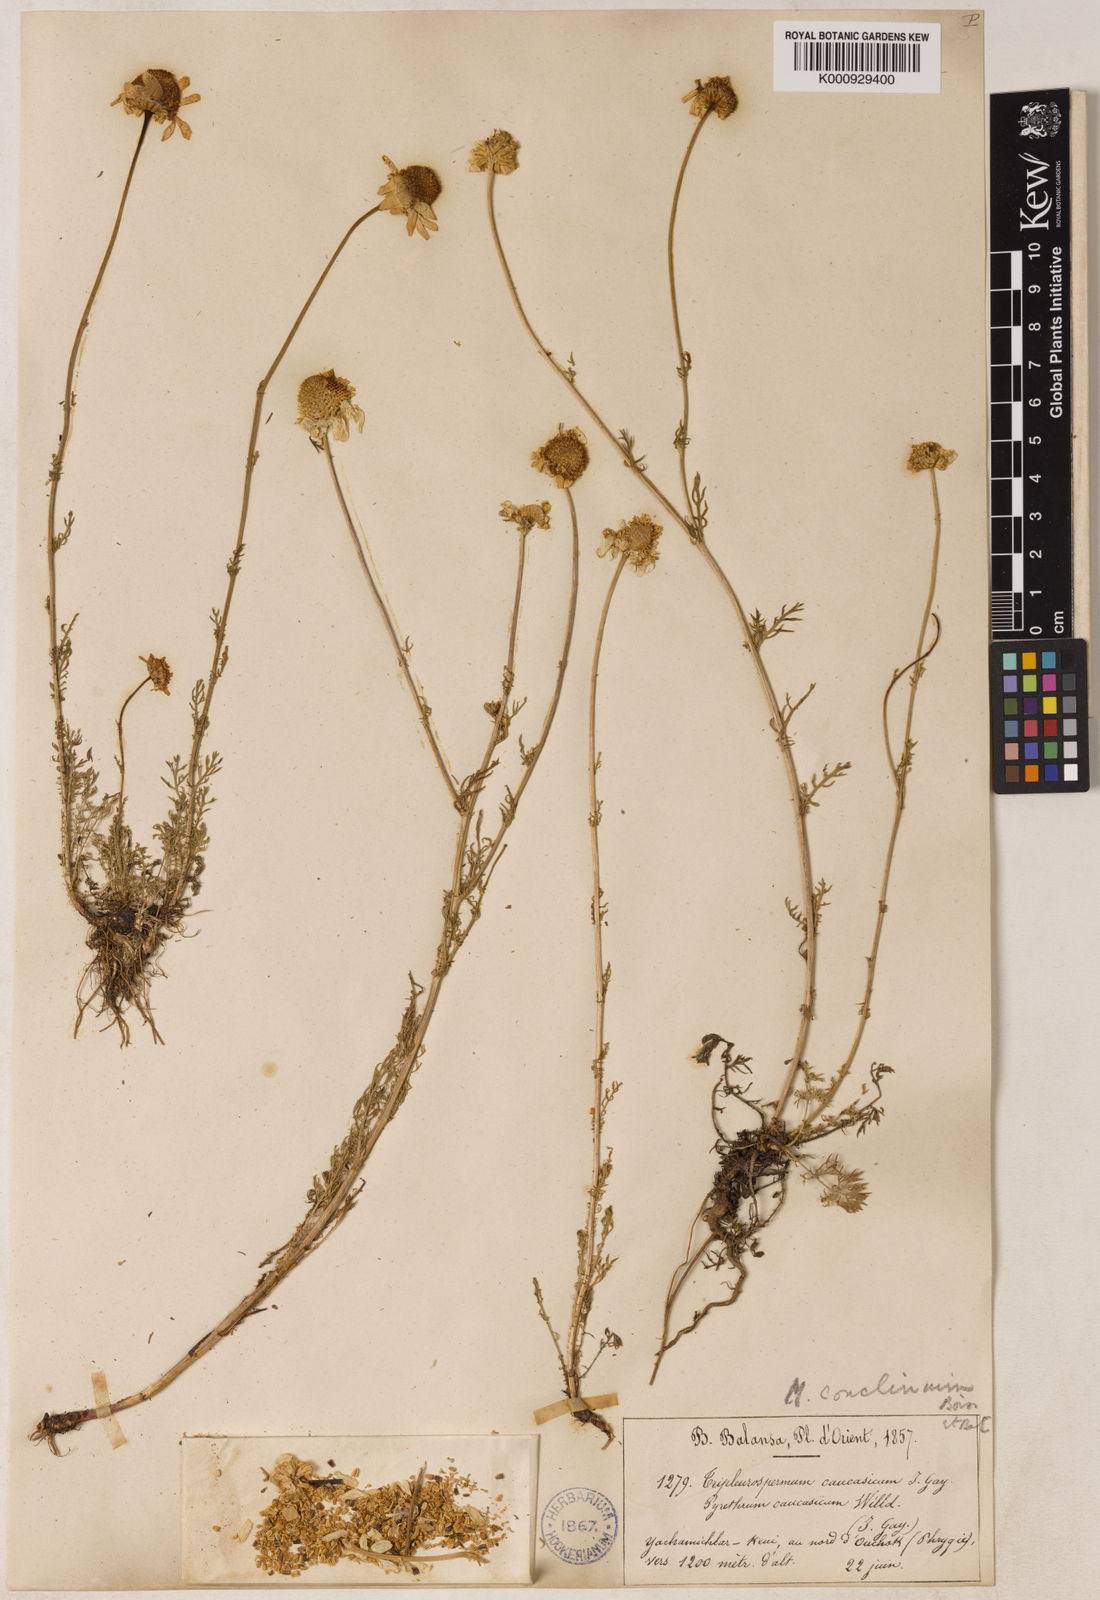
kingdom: Plantae
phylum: Tracheophyta
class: Magnoliopsida
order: Asterales
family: Asteraceae
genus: Tripleurospermum
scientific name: Tripleurospermum conoclinium
